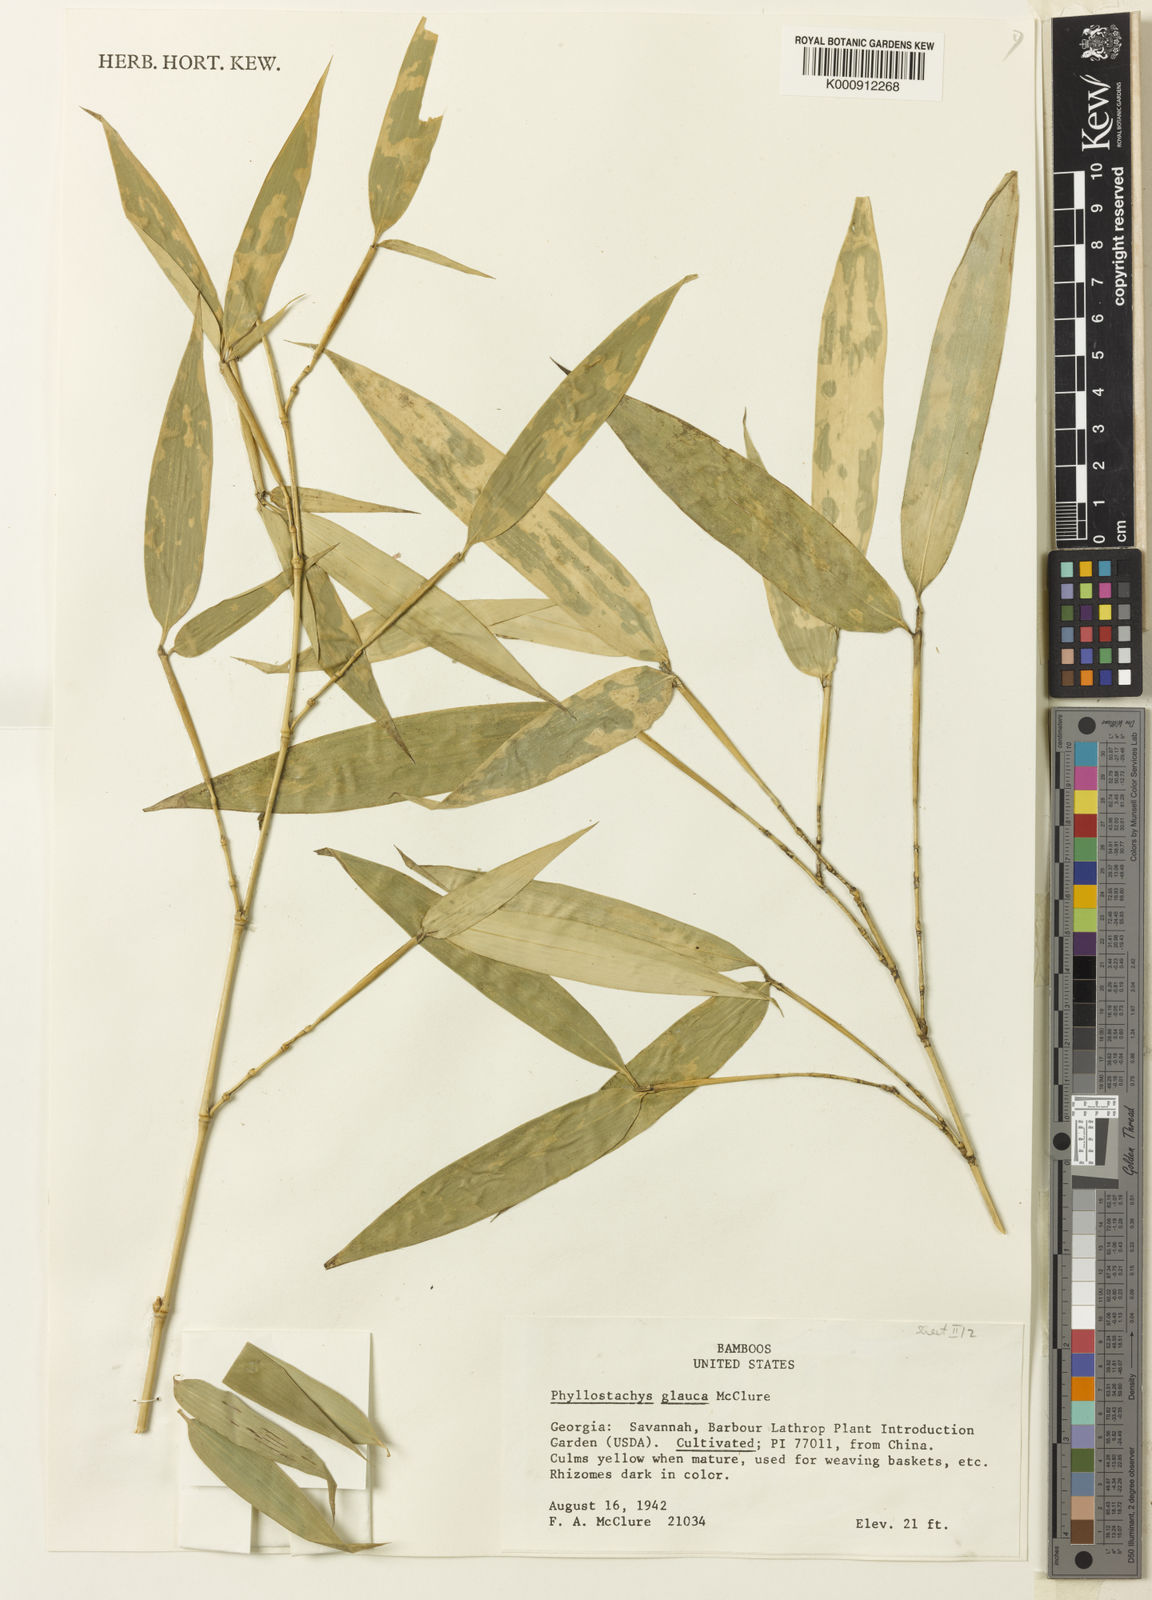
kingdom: Plantae
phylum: Tracheophyta
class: Liliopsida
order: Poales
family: Poaceae
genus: Phyllostachys
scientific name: Phyllostachys glauca
